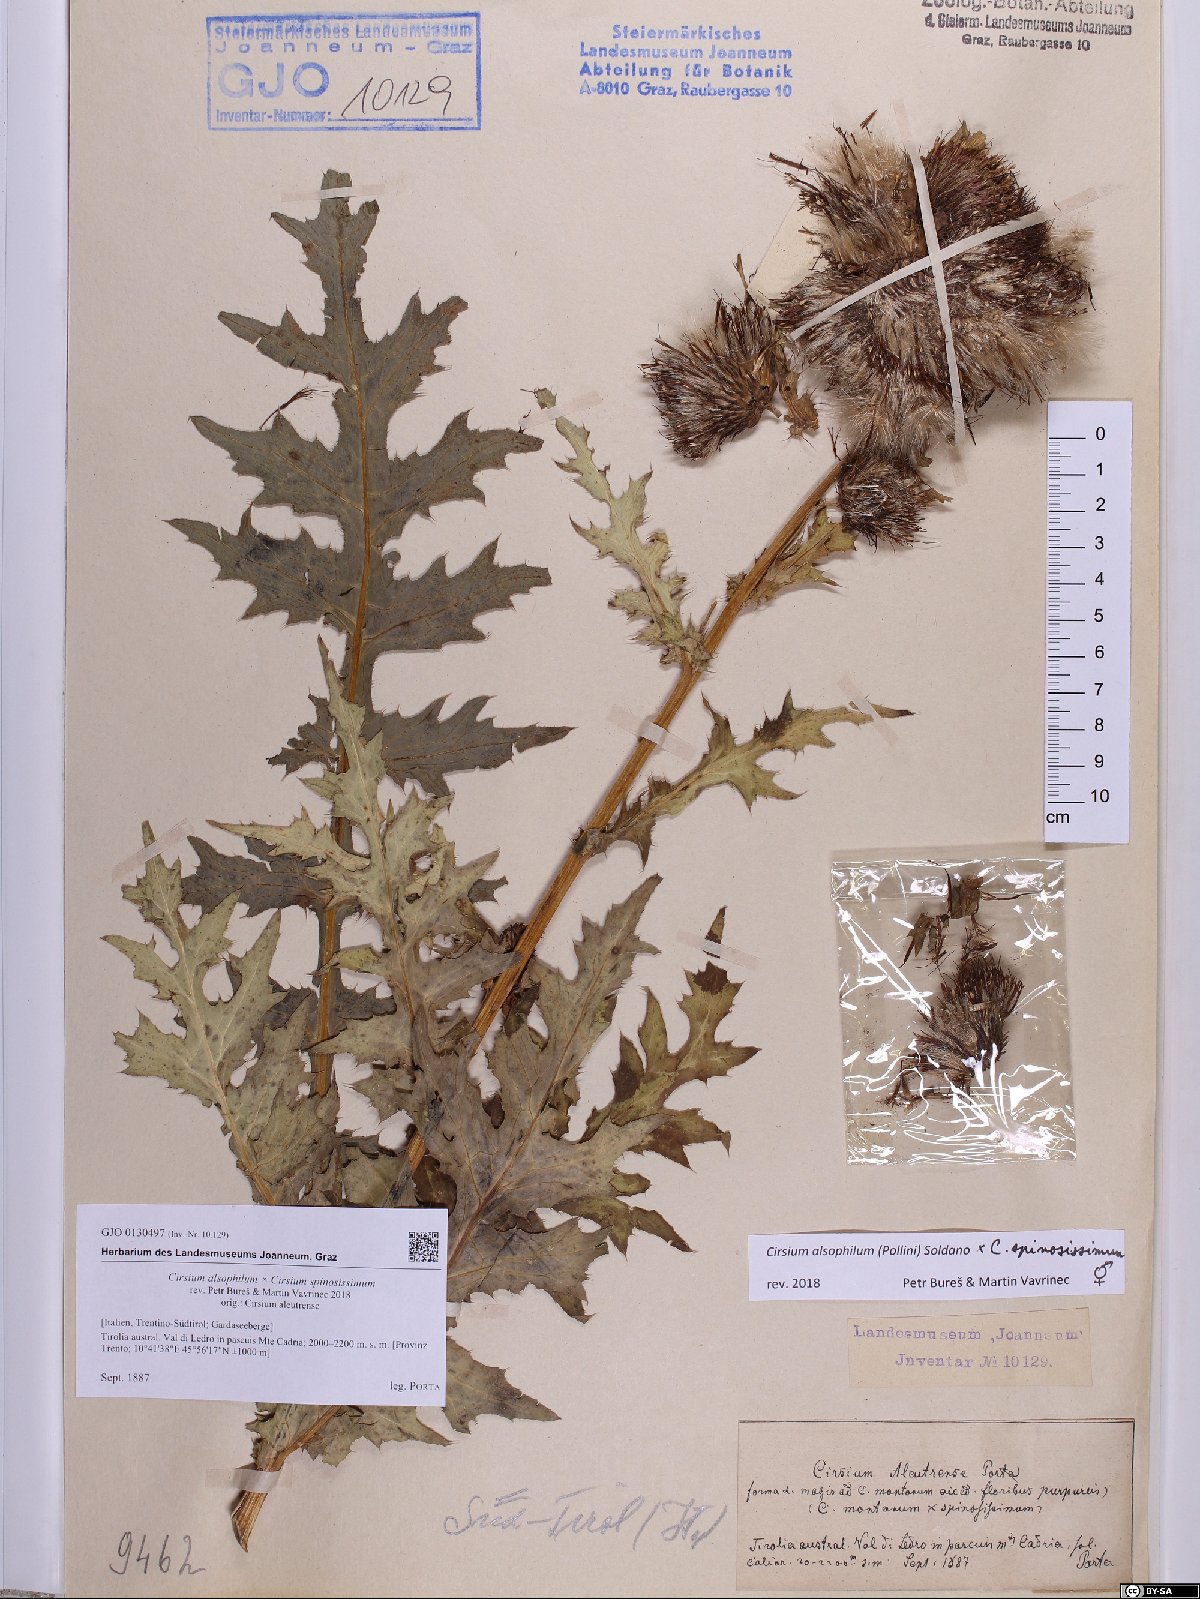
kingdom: Plantae
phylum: Tracheophyta
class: Magnoliopsida
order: Asterales
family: Asteraceae
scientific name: Asteraceae
